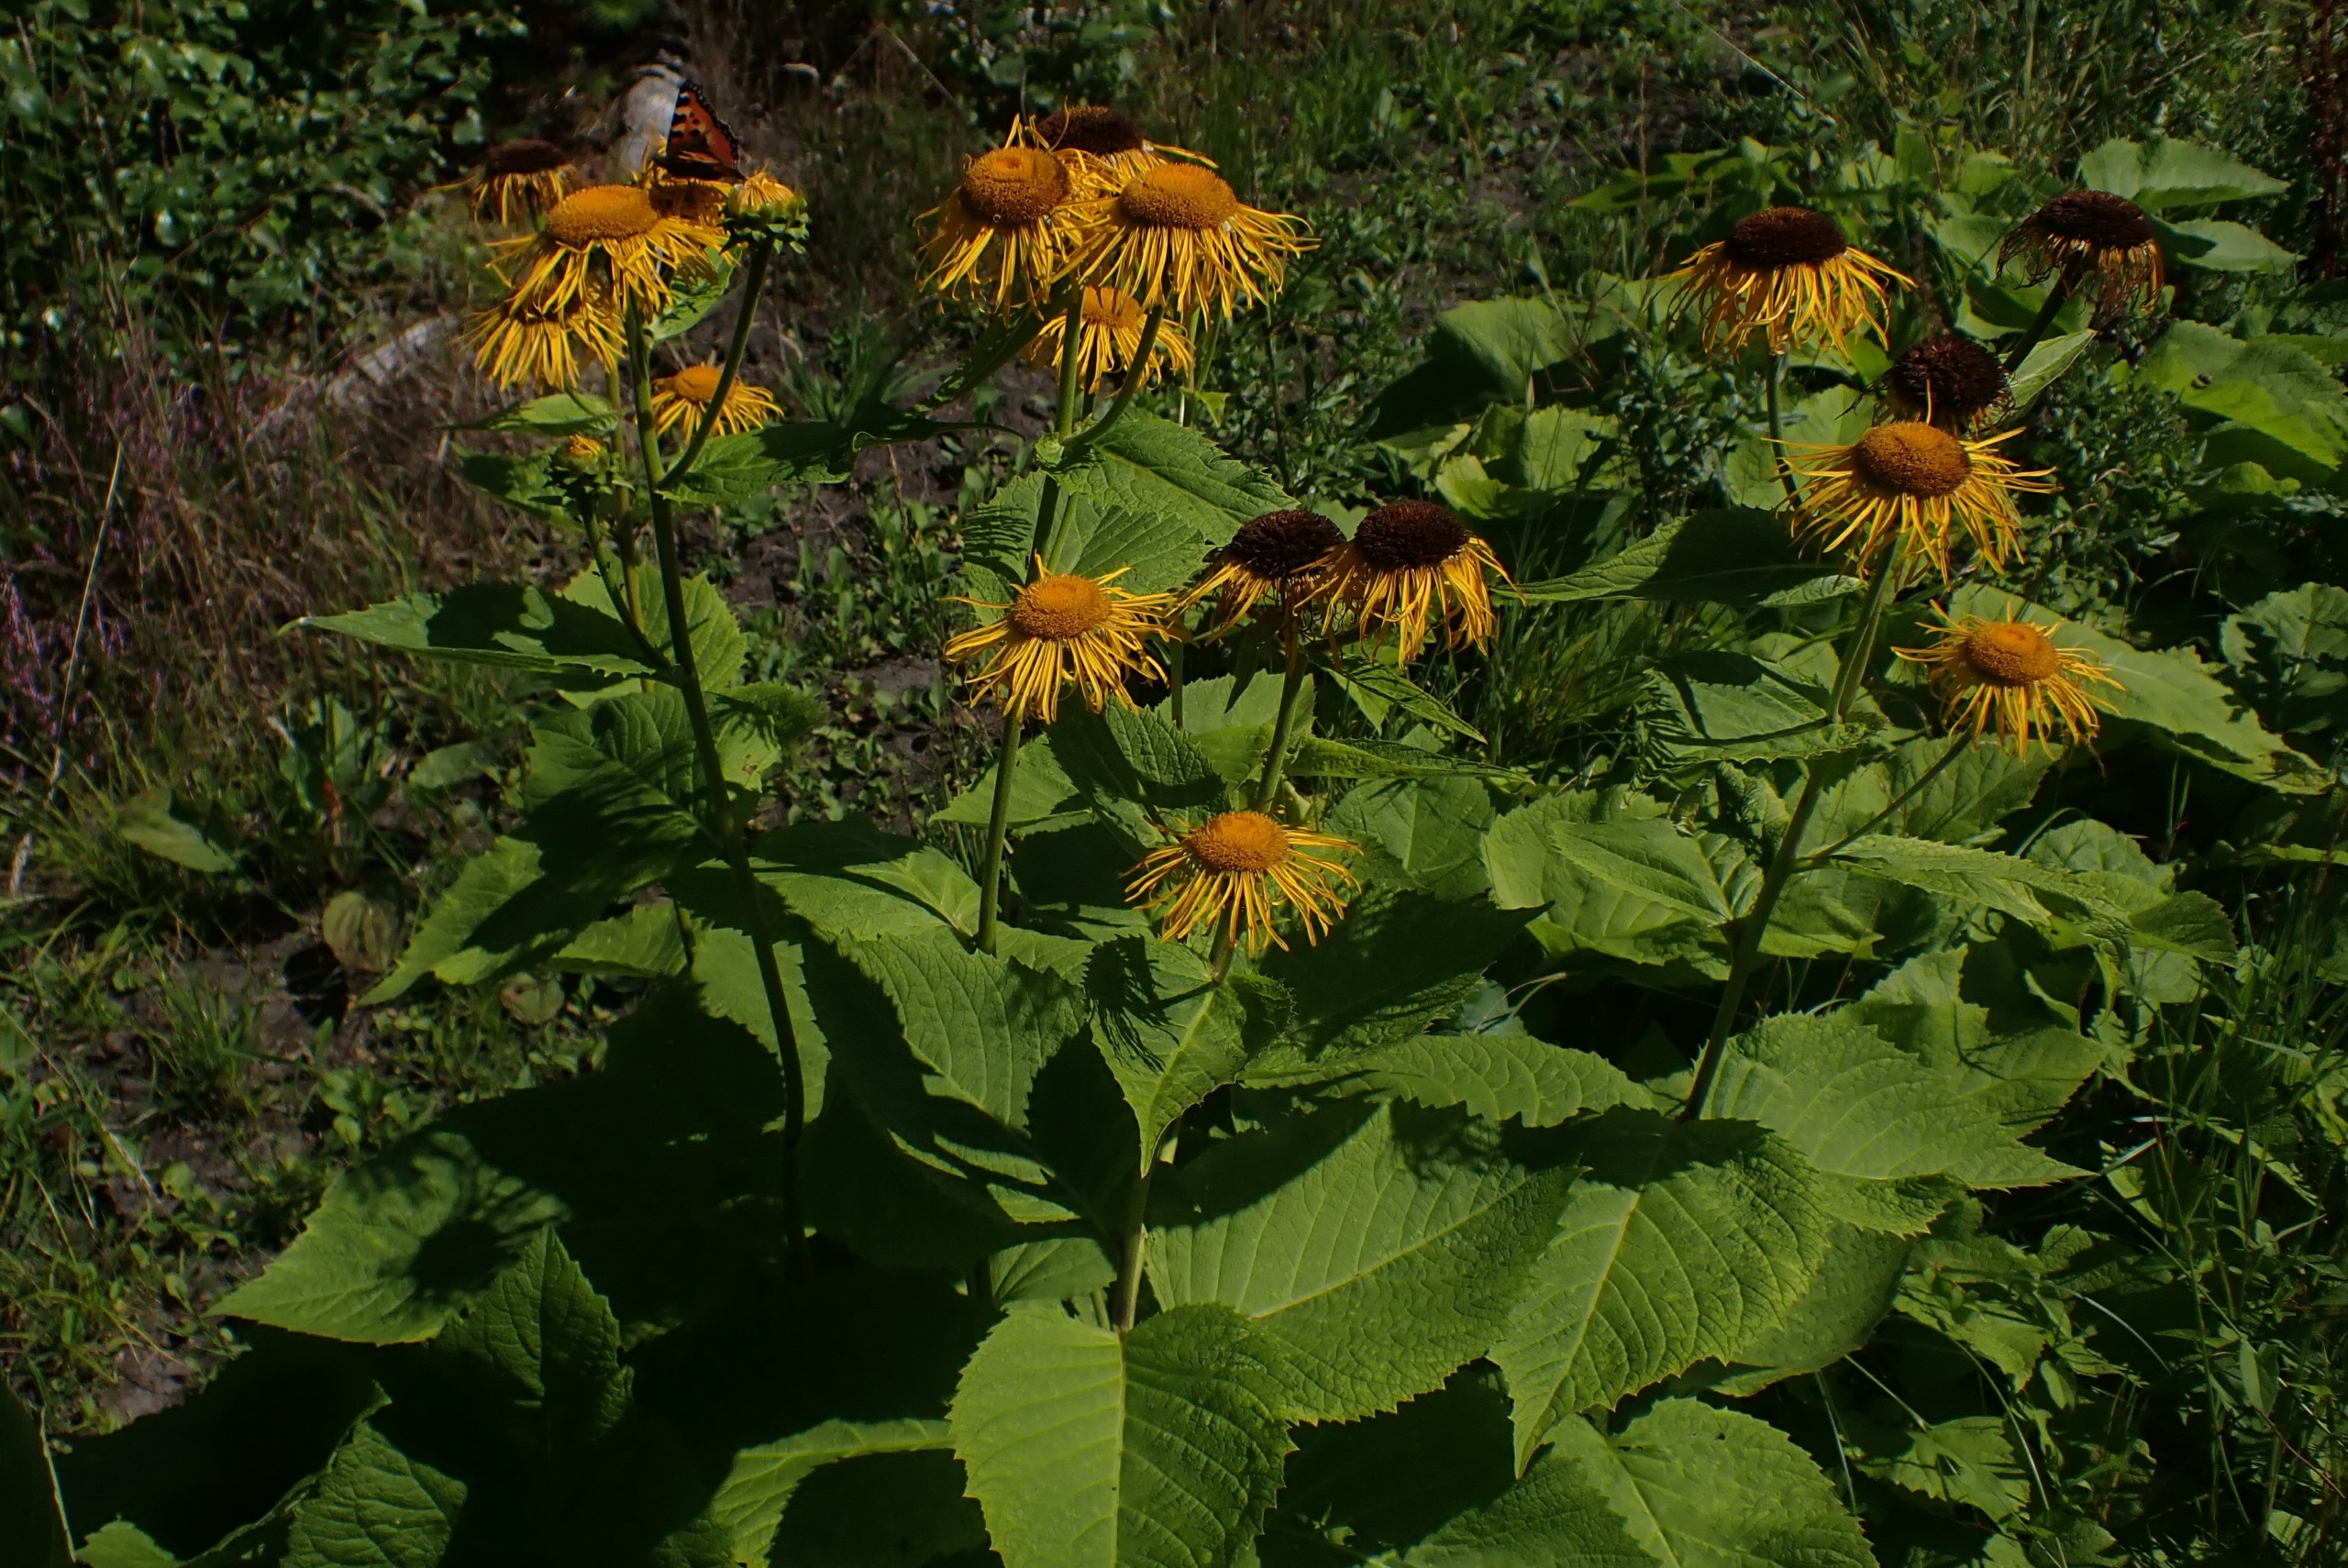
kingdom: Plantae
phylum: Tracheophyta
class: Magnoliopsida
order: Asterales
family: Asteraceae
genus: Telekia
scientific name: Telekia speciosa
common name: Tusindstråle
